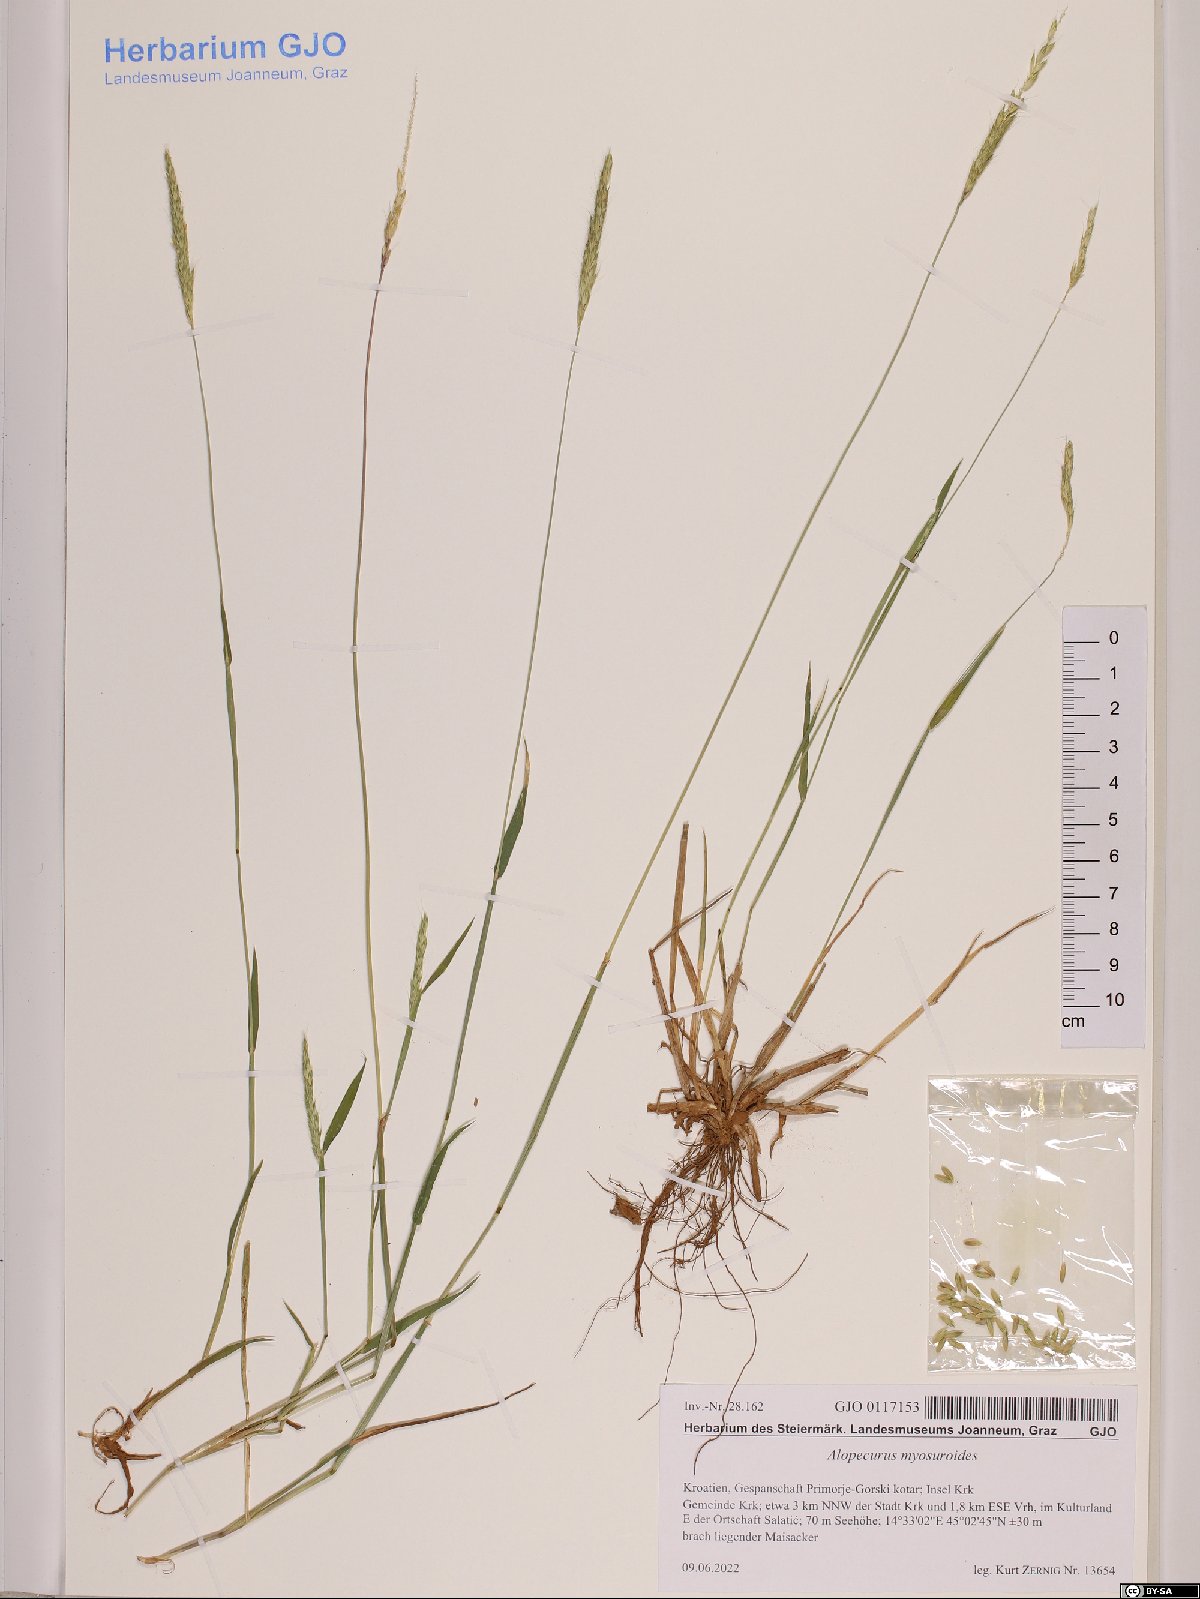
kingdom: Plantae
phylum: Tracheophyta
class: Liliopsida
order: Poales
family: Poaceae
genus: Alopecurus
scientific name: Alopecurus myosuroides
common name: Black-grass
